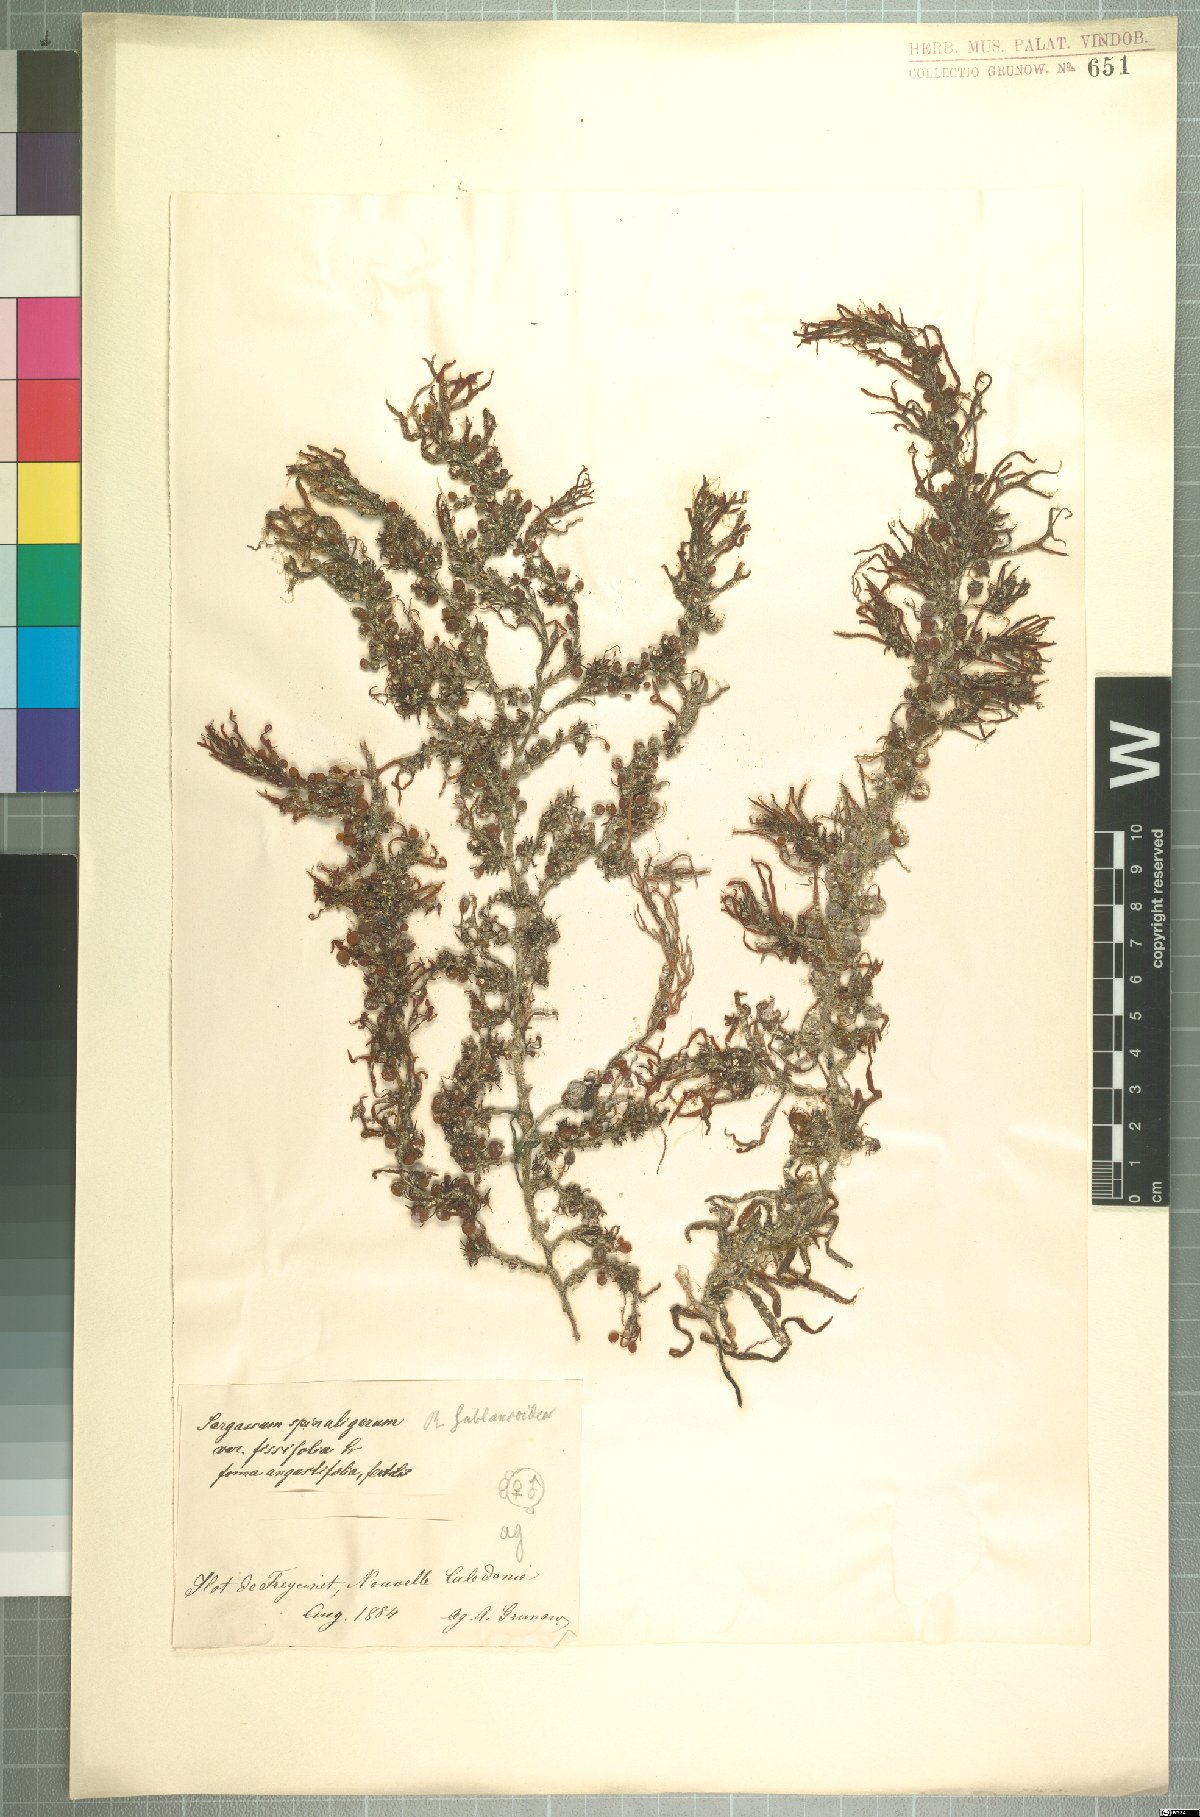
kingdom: Chromista
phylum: Ochrophyta
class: Phaeophyceae
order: Fucales
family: Sargassaceae
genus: Sargassum
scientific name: Sargassum
